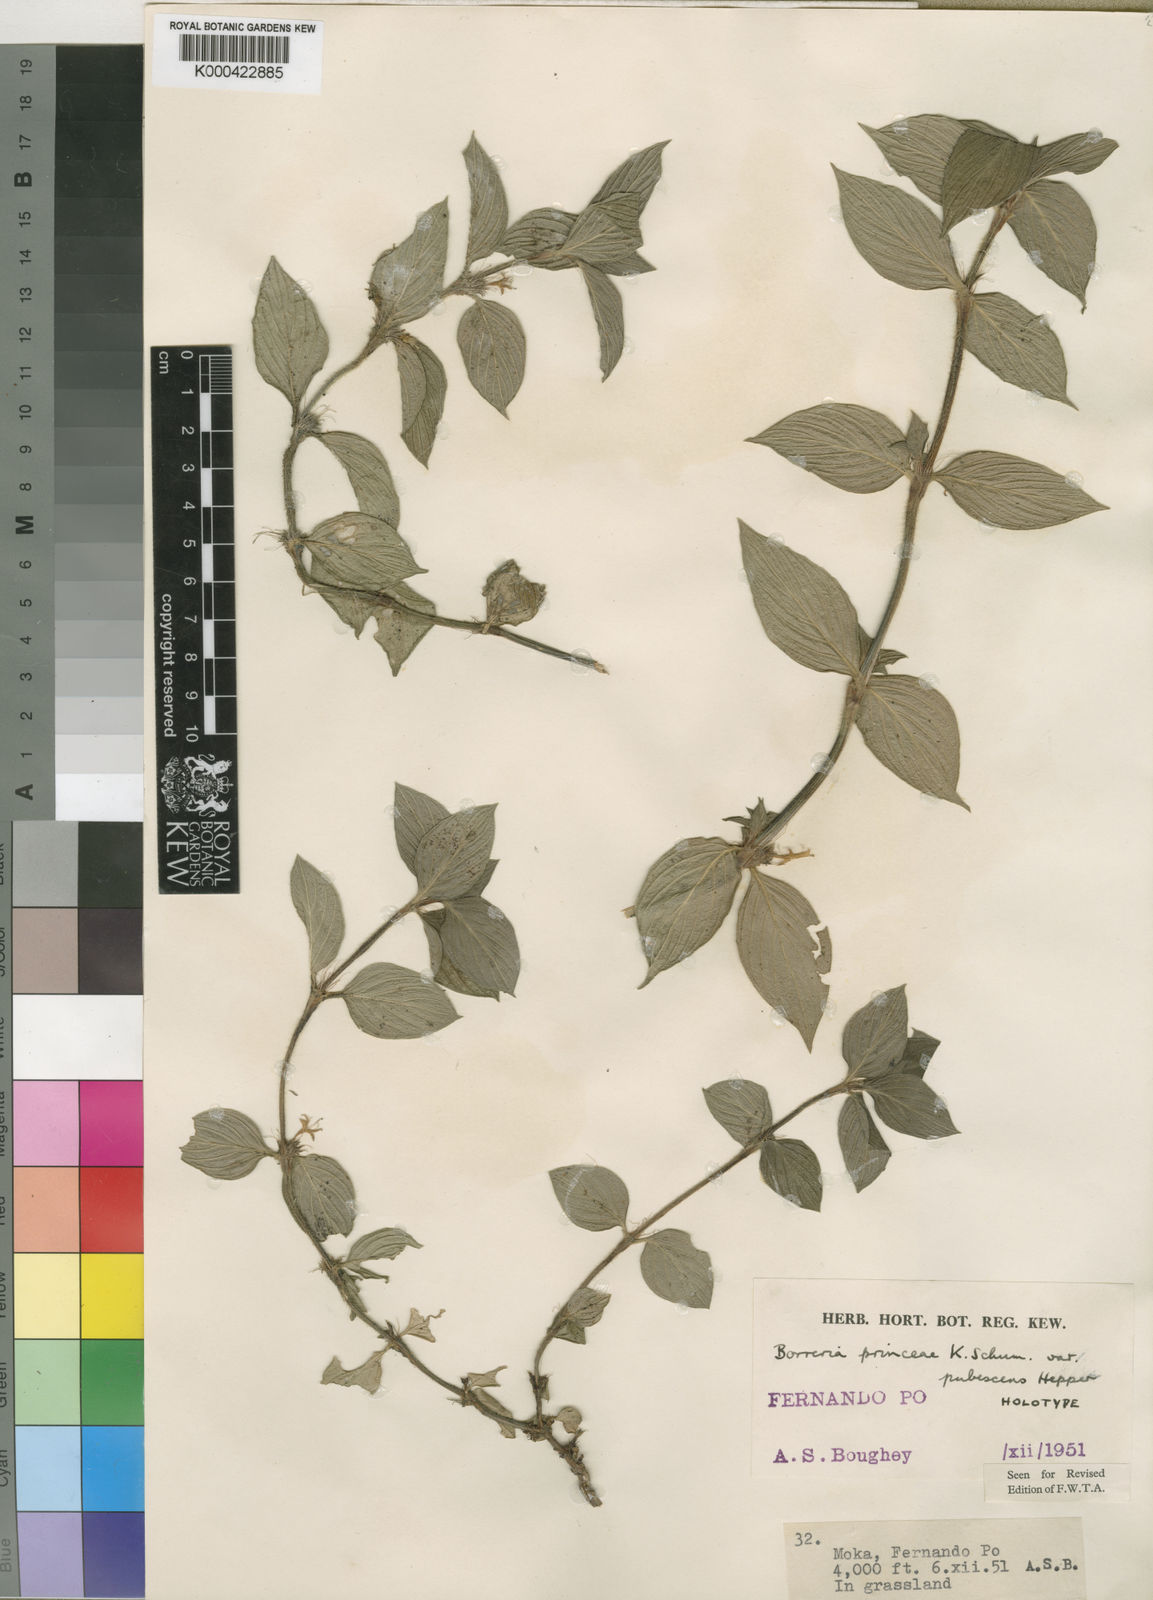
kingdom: Plantae
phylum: Tracheophyta
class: Magnoliopsida
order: Gentianales
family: Rubiaceae
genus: Spermacoce
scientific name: Spermacoce princeae
